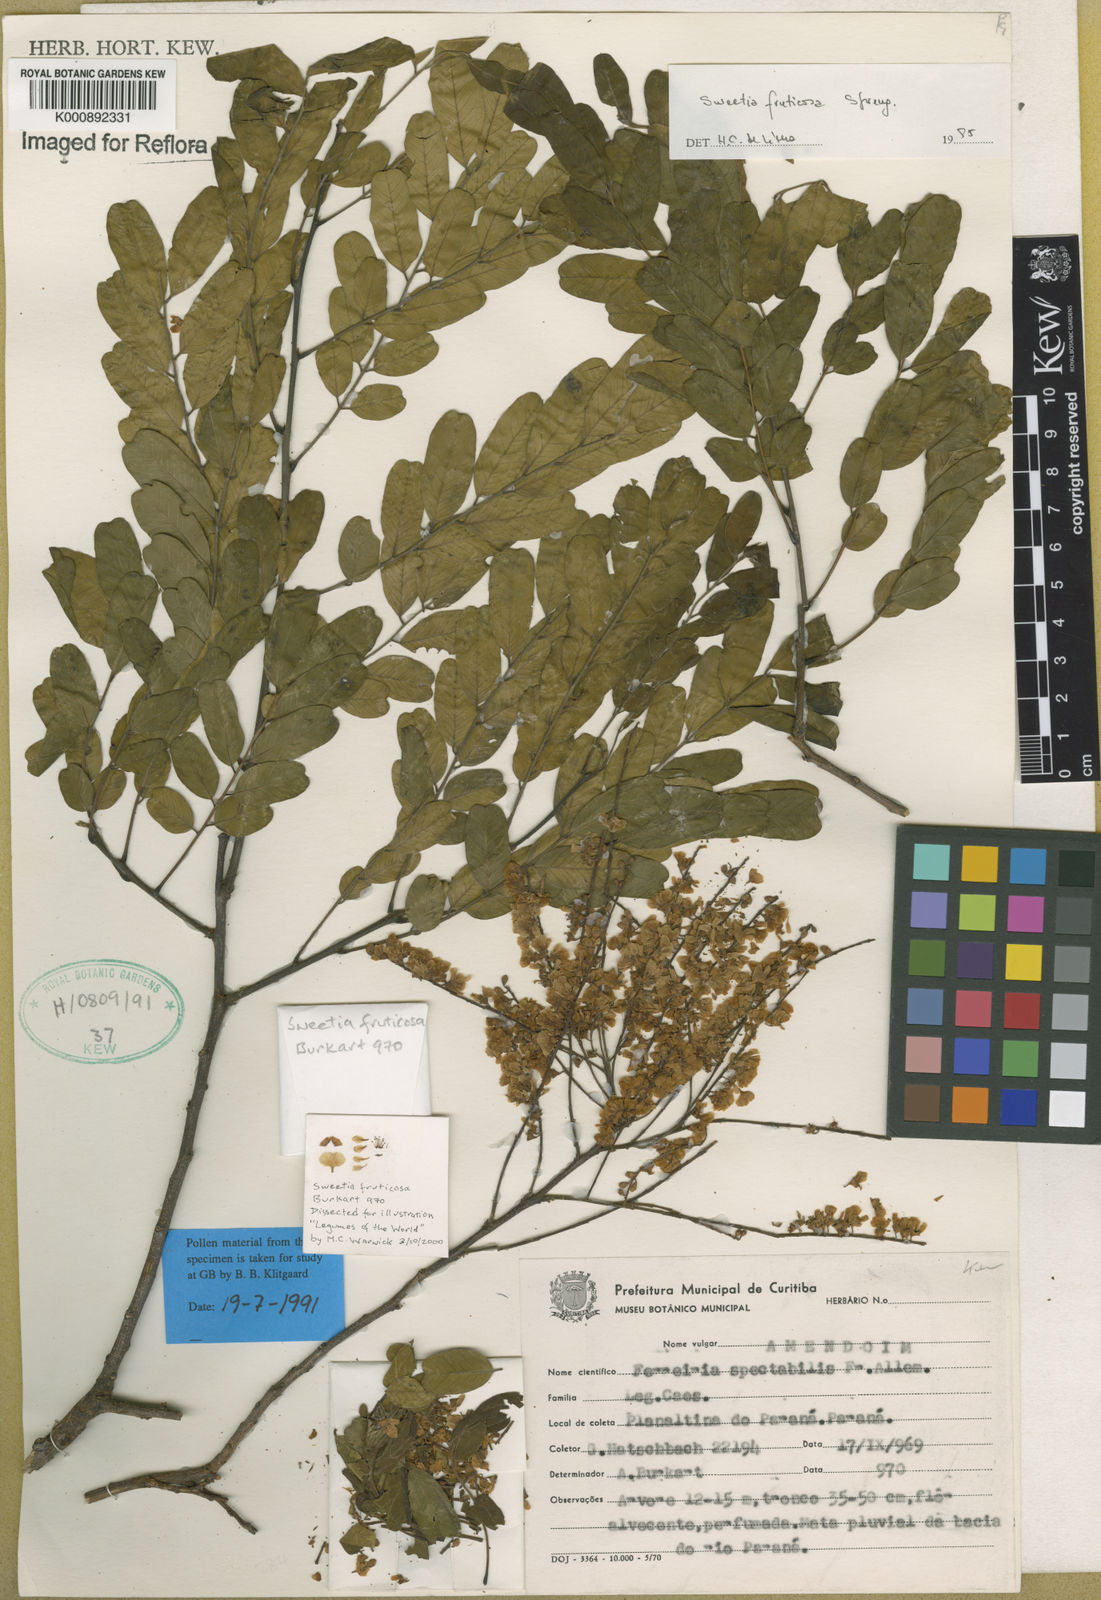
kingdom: Plantae
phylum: Tracheophyta
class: Magnoliopsida
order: Fabales
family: Fabaceae
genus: Sweetia
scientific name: Sweetia
